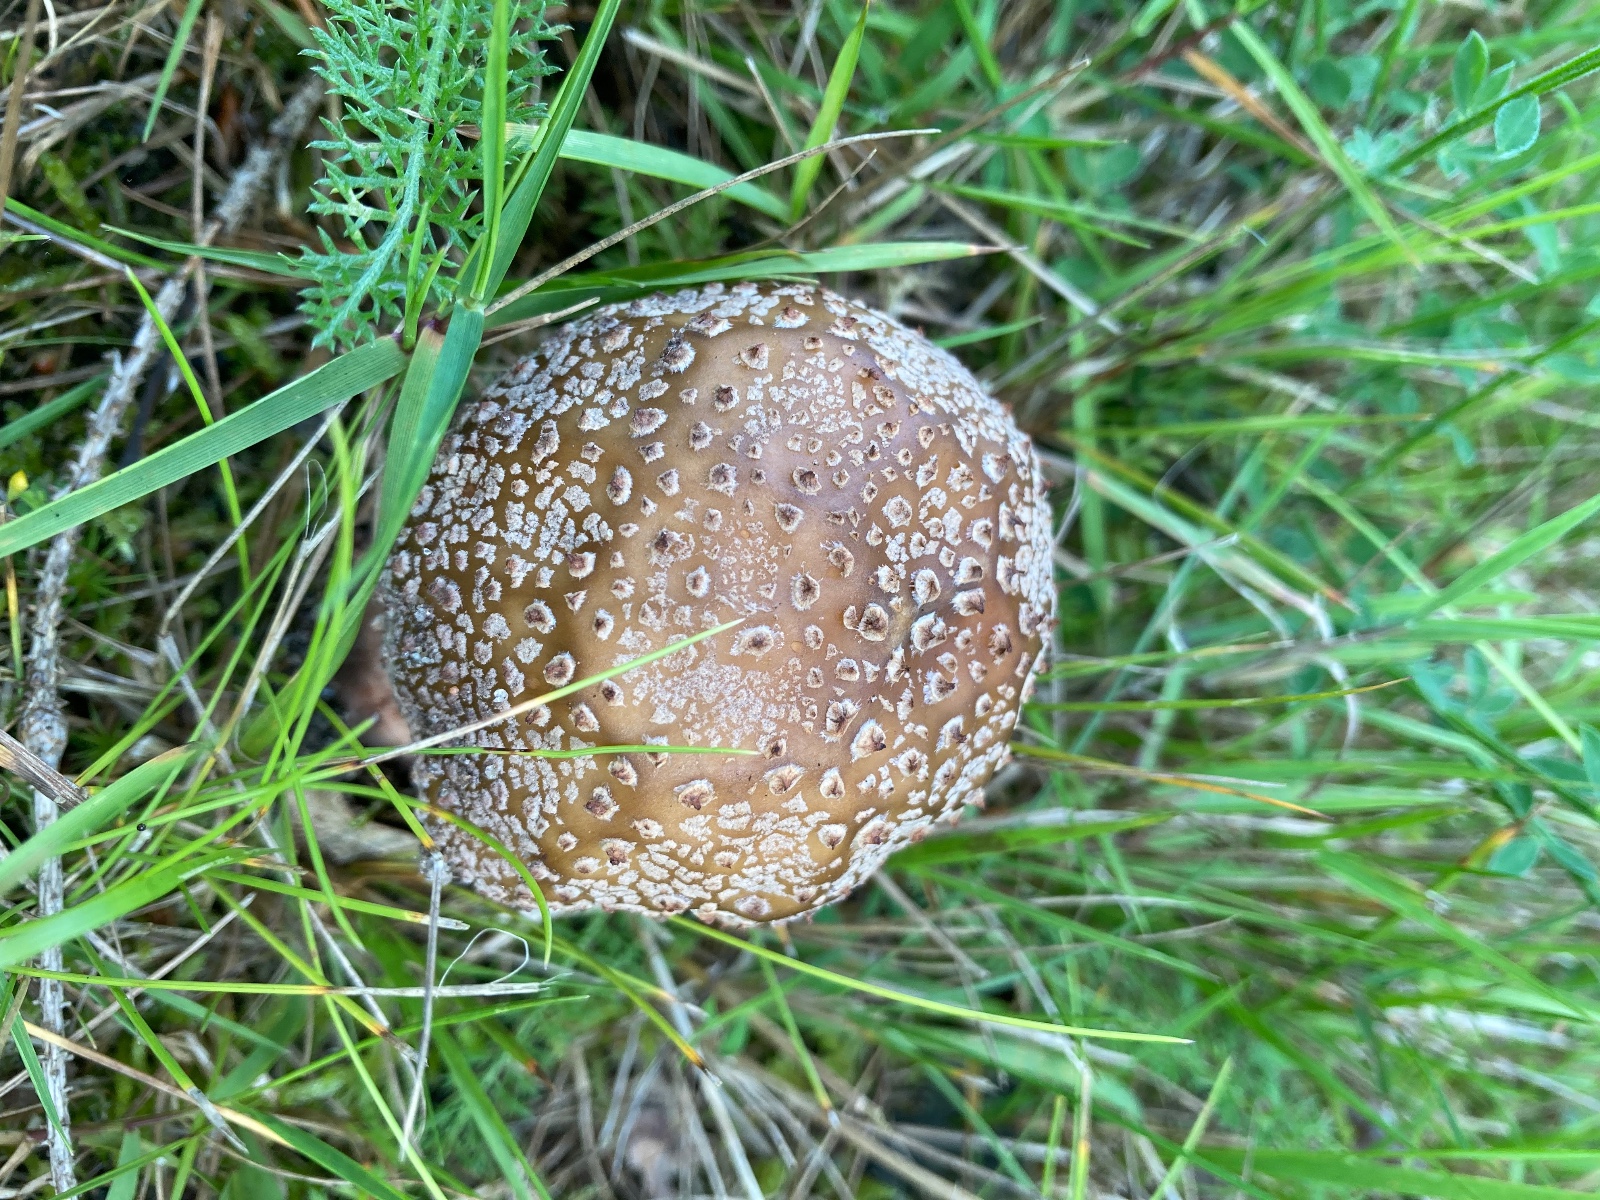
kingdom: Fungi
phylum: Basidiomycota
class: Agaricomycetes
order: Agaricales
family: Amanitaceae
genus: Amanita
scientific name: Amanita rubescens
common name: rødmende fluesvamp
